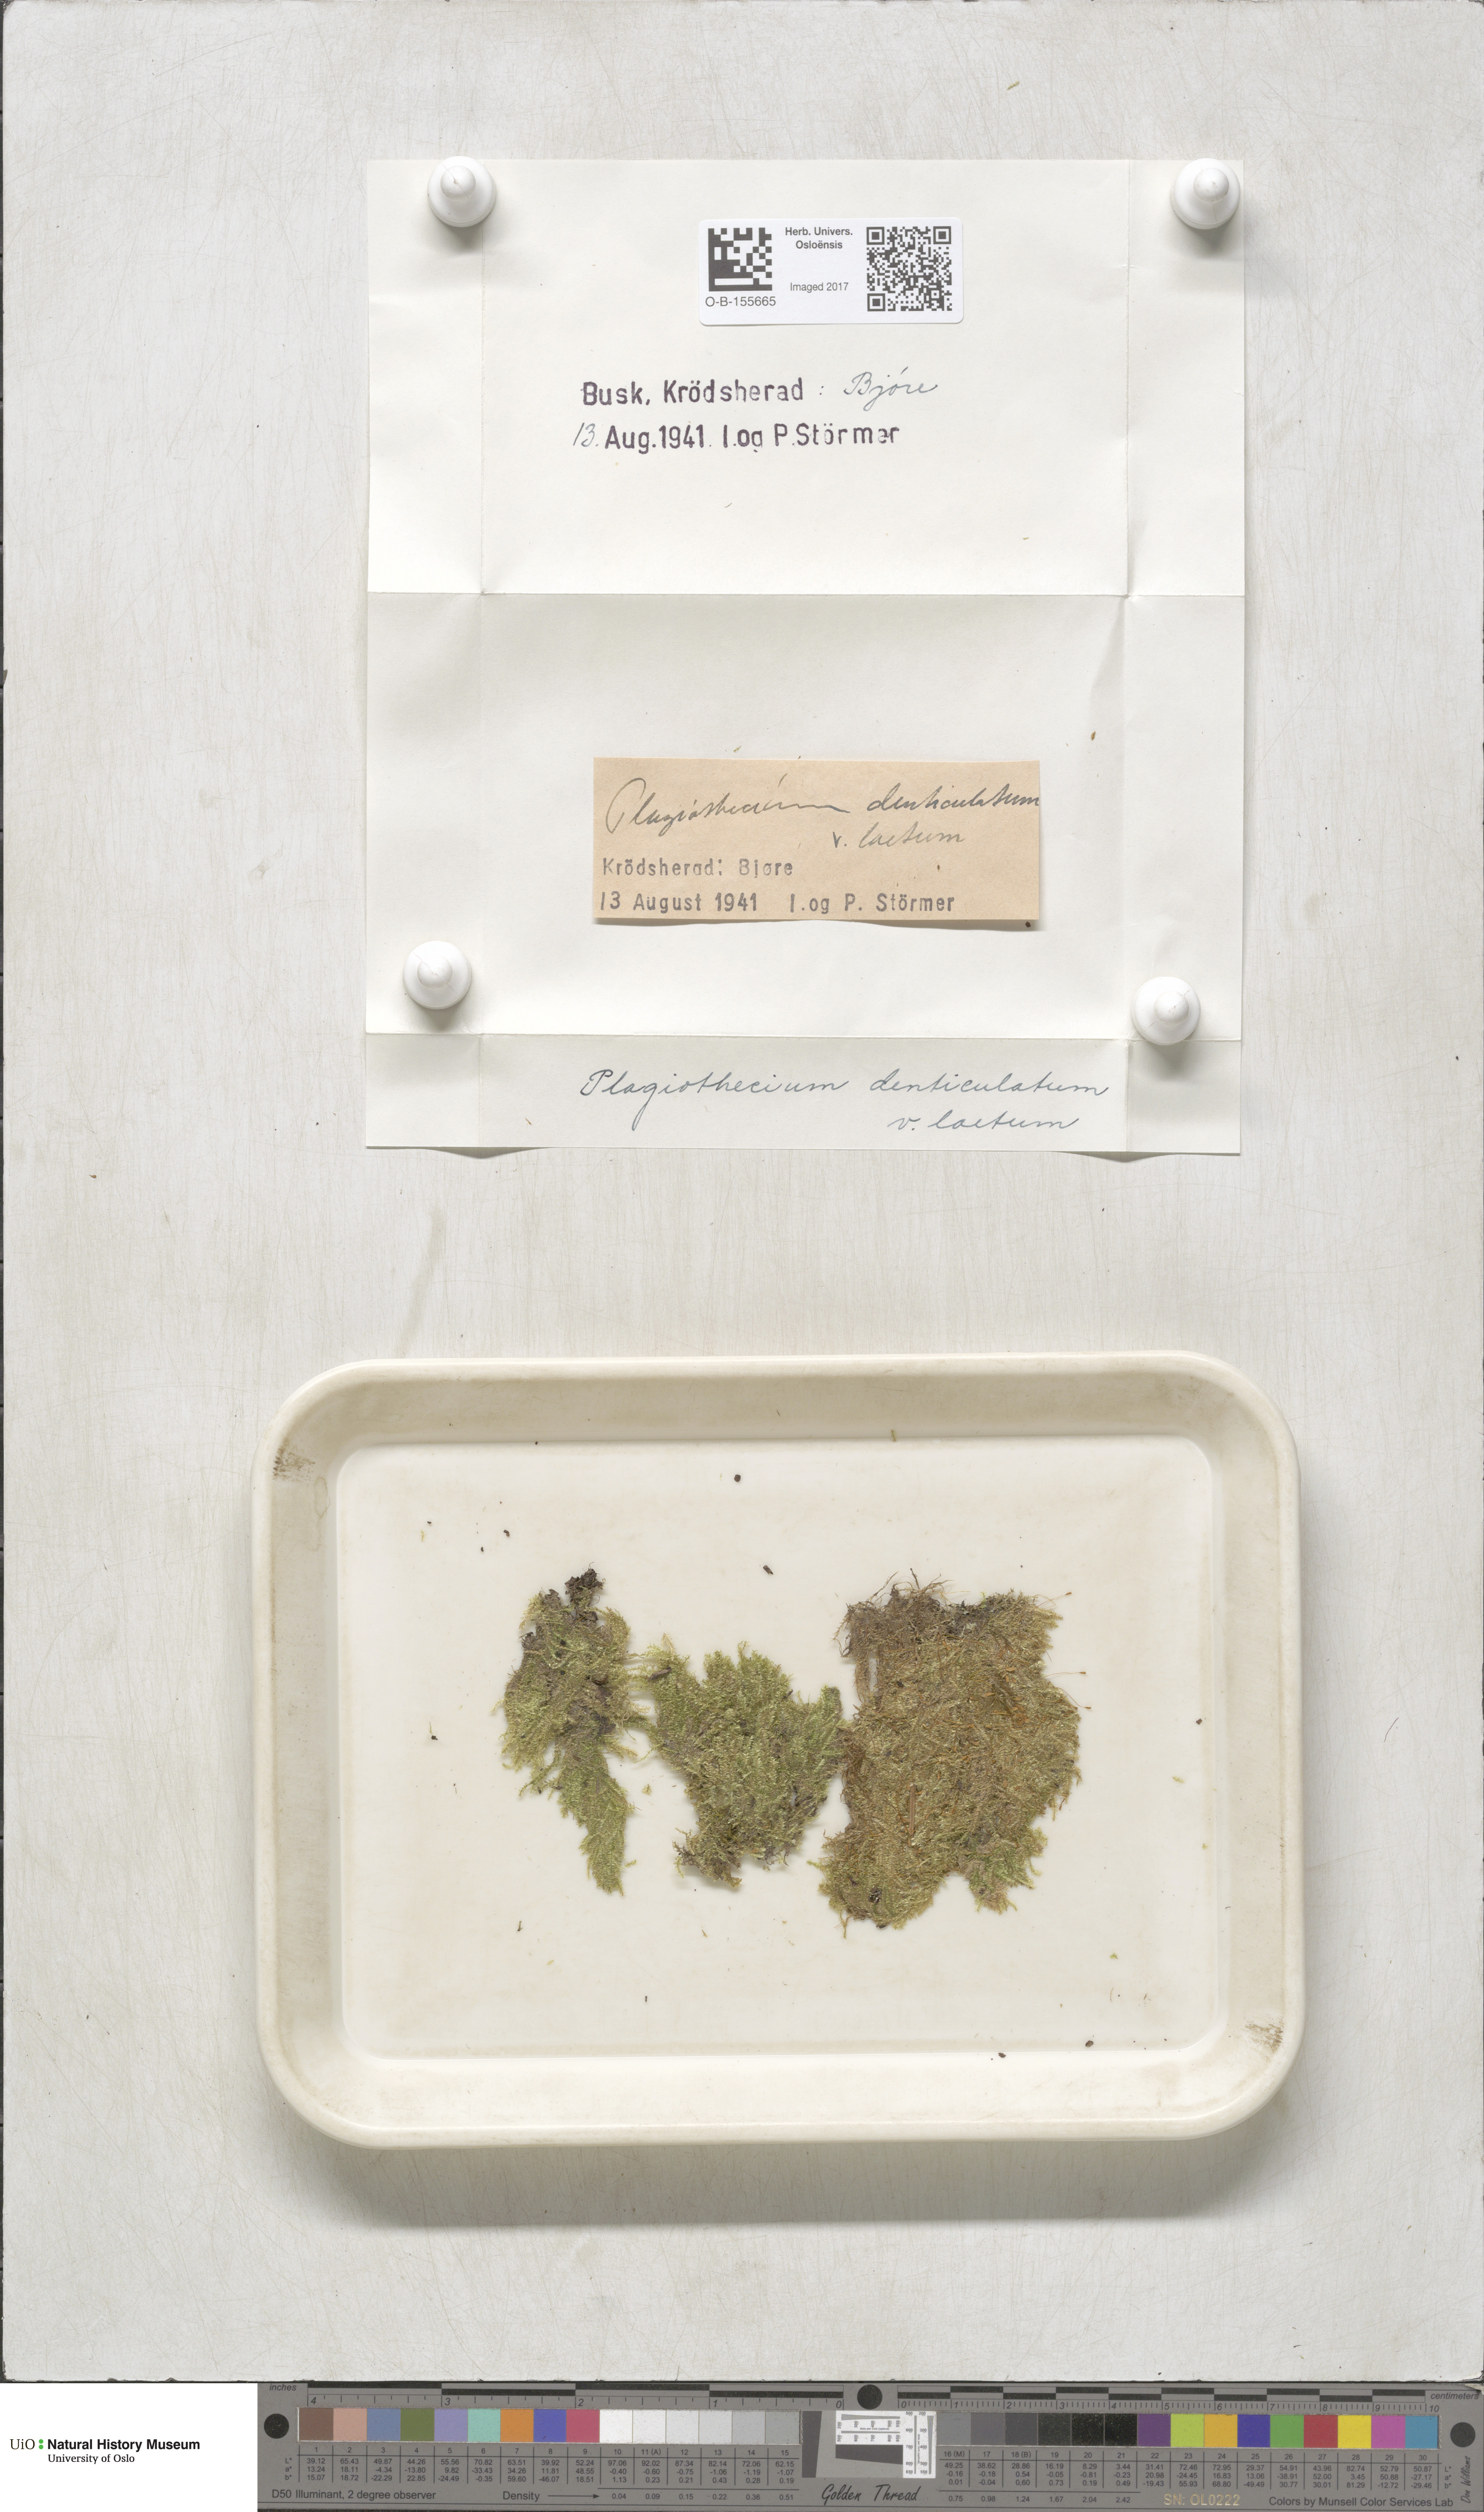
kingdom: Plantae
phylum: Bryophyta
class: Bryopsida
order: Hypnales
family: Plagiotheciaceae
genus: Plagiothecium
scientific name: Plagiothecium laetum
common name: Bright silk moss
